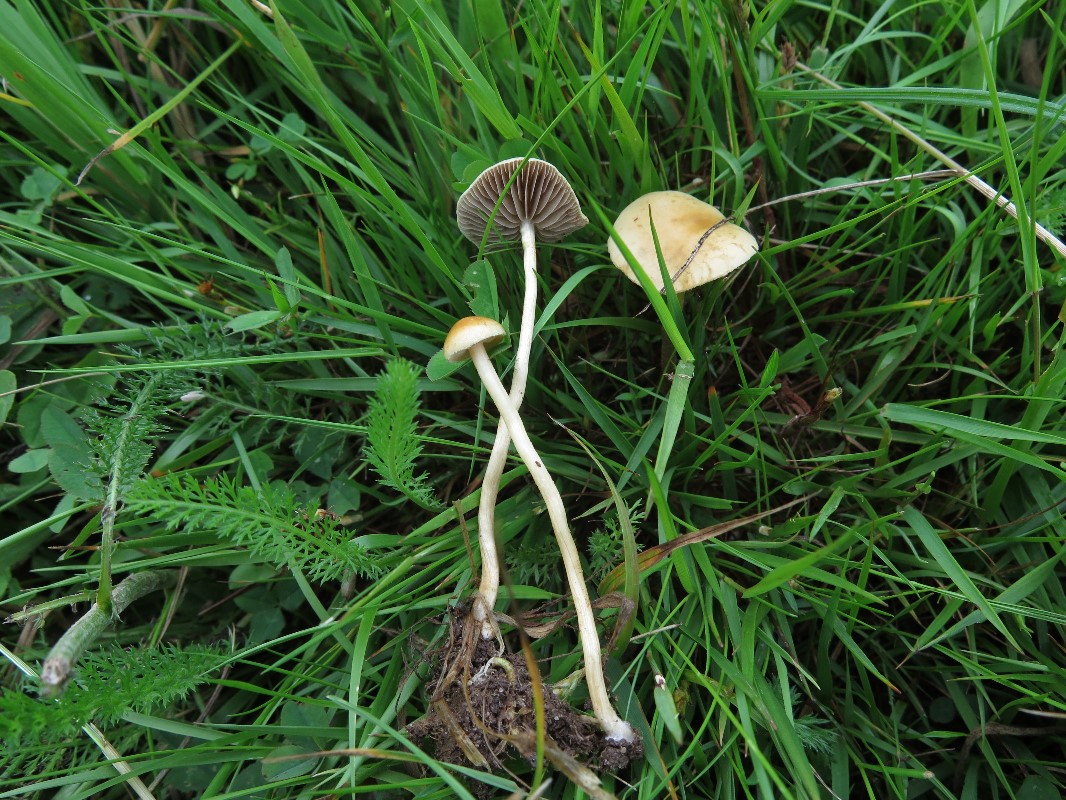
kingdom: Fungi
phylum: Basidiomycota
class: Agaricomycetes
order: Agaricales
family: Strophariaceae
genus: Agrocybe
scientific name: Agrocybe pediades
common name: almindelig agerhat
